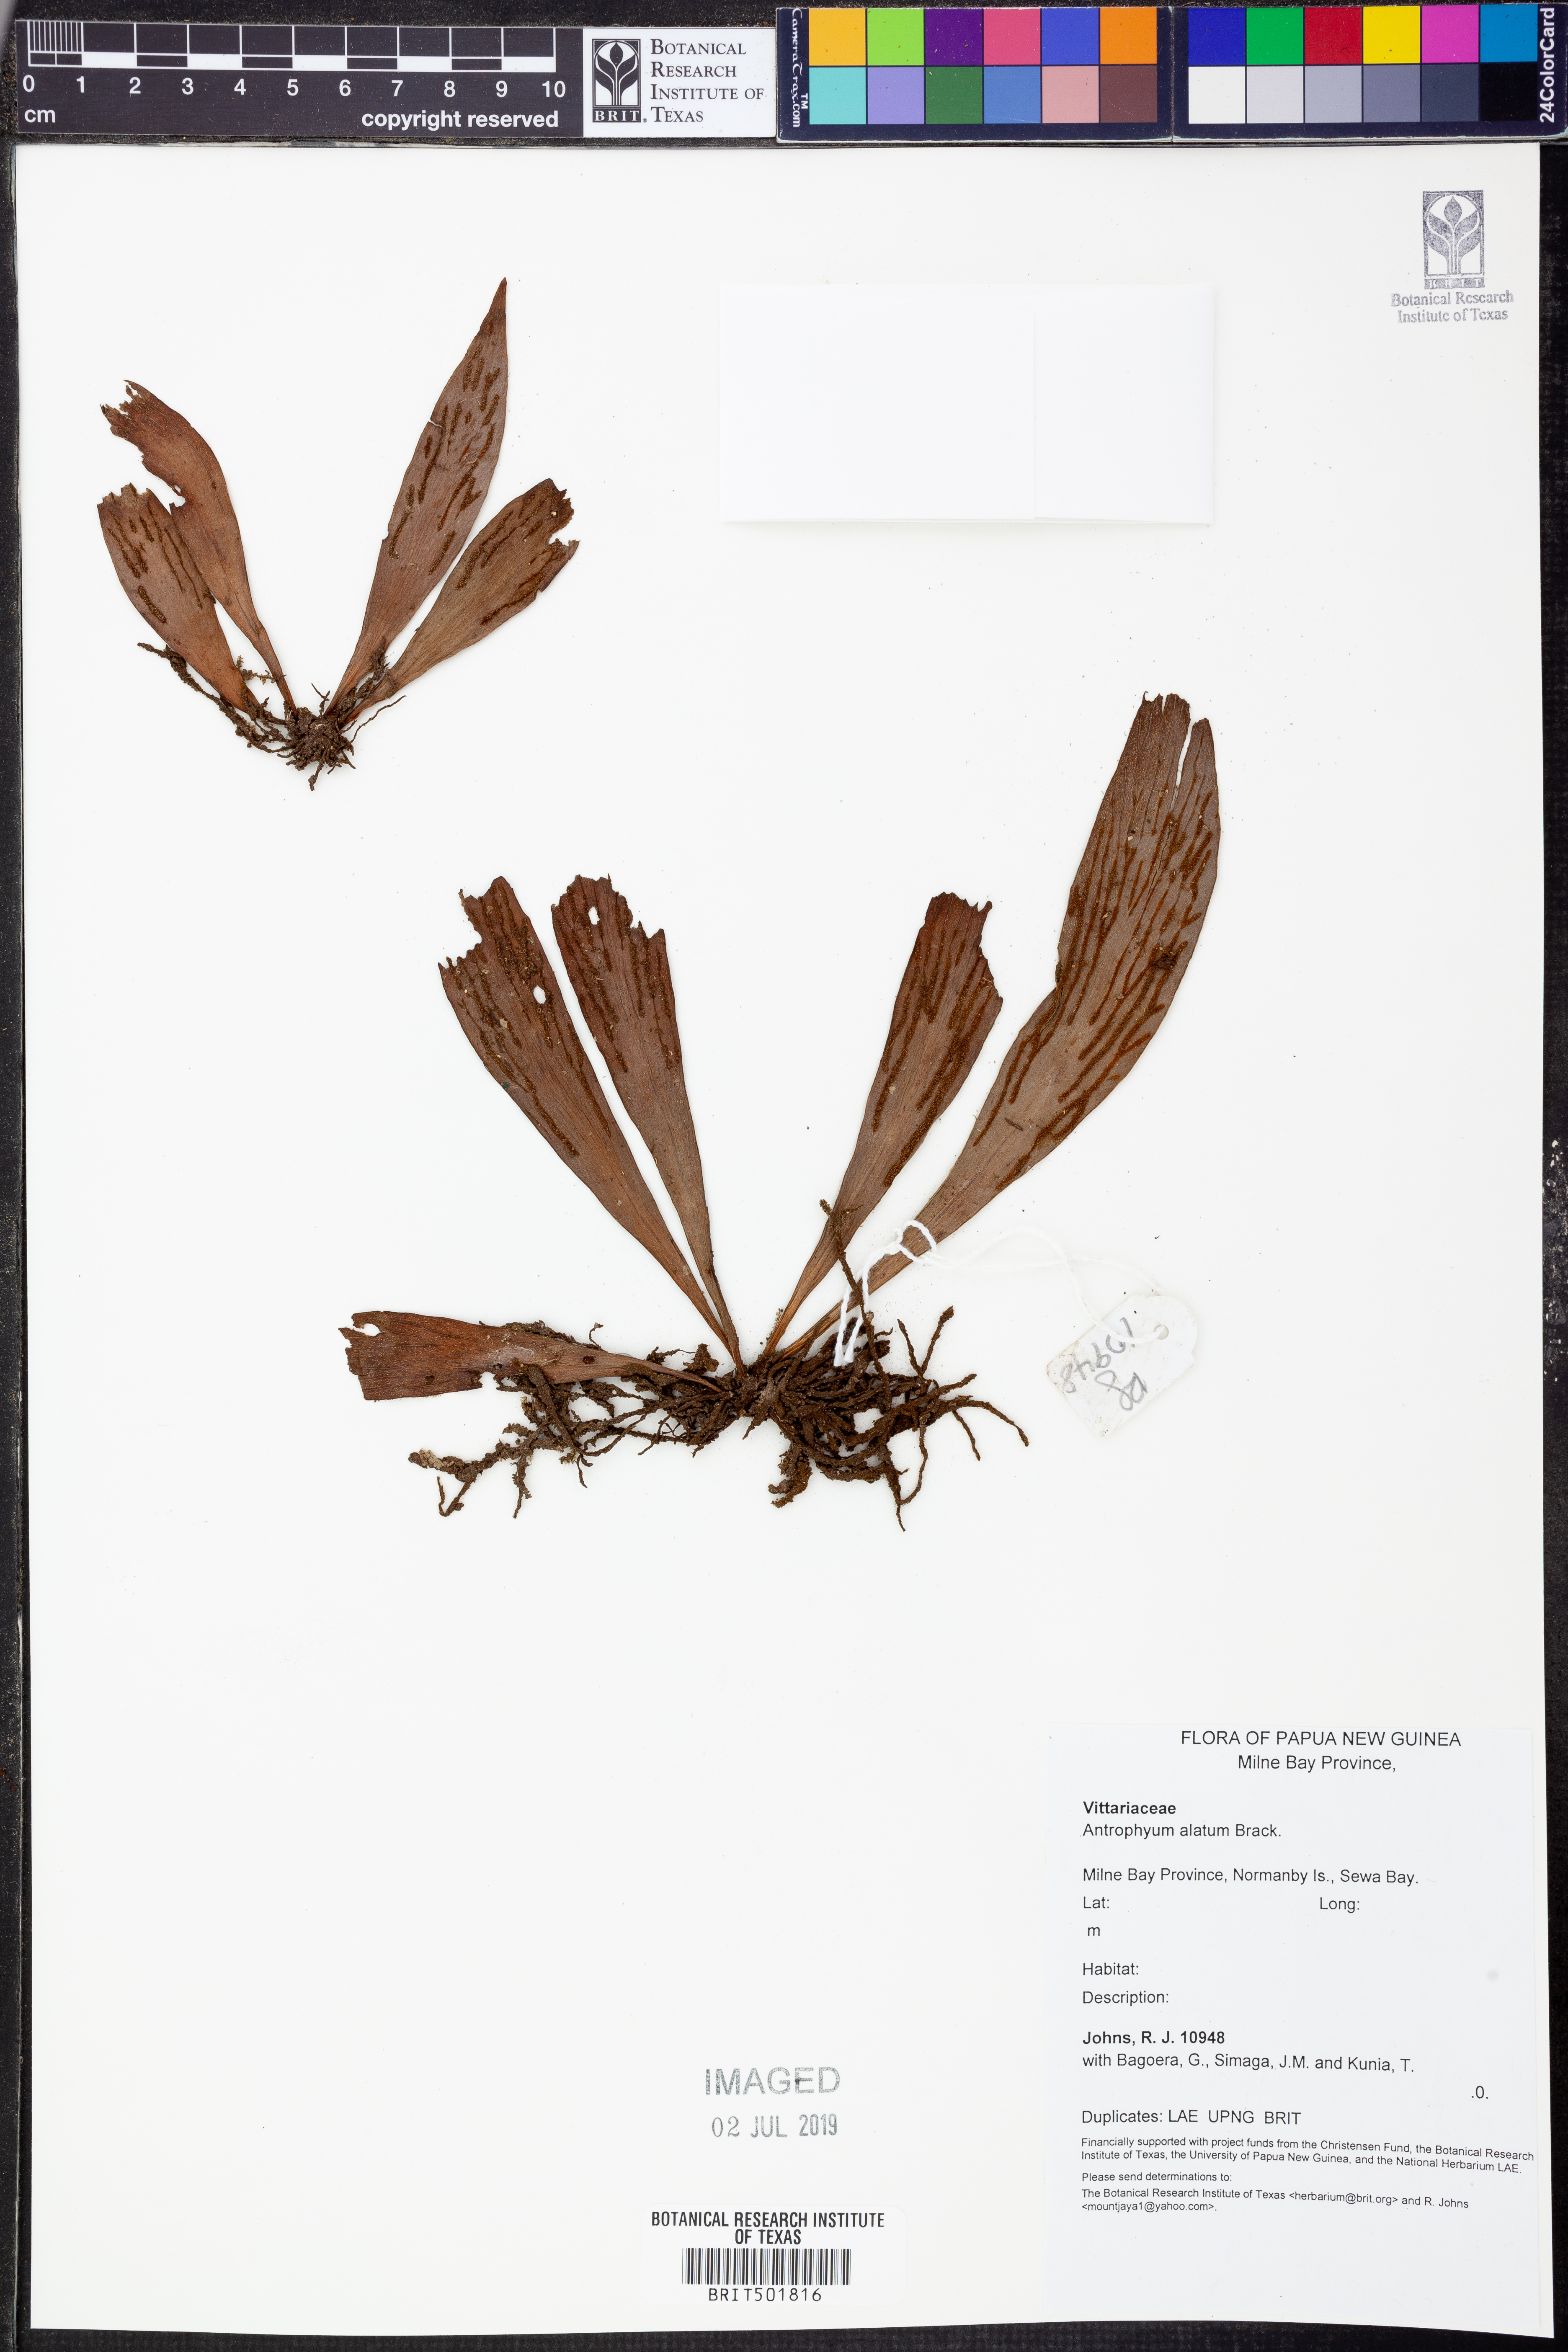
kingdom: Plantae
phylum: Tracheophyta
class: Polypodiopsida
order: Polypodiales
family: Pteridaceae
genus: Antrophyum
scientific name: Antrophyum callifolium
